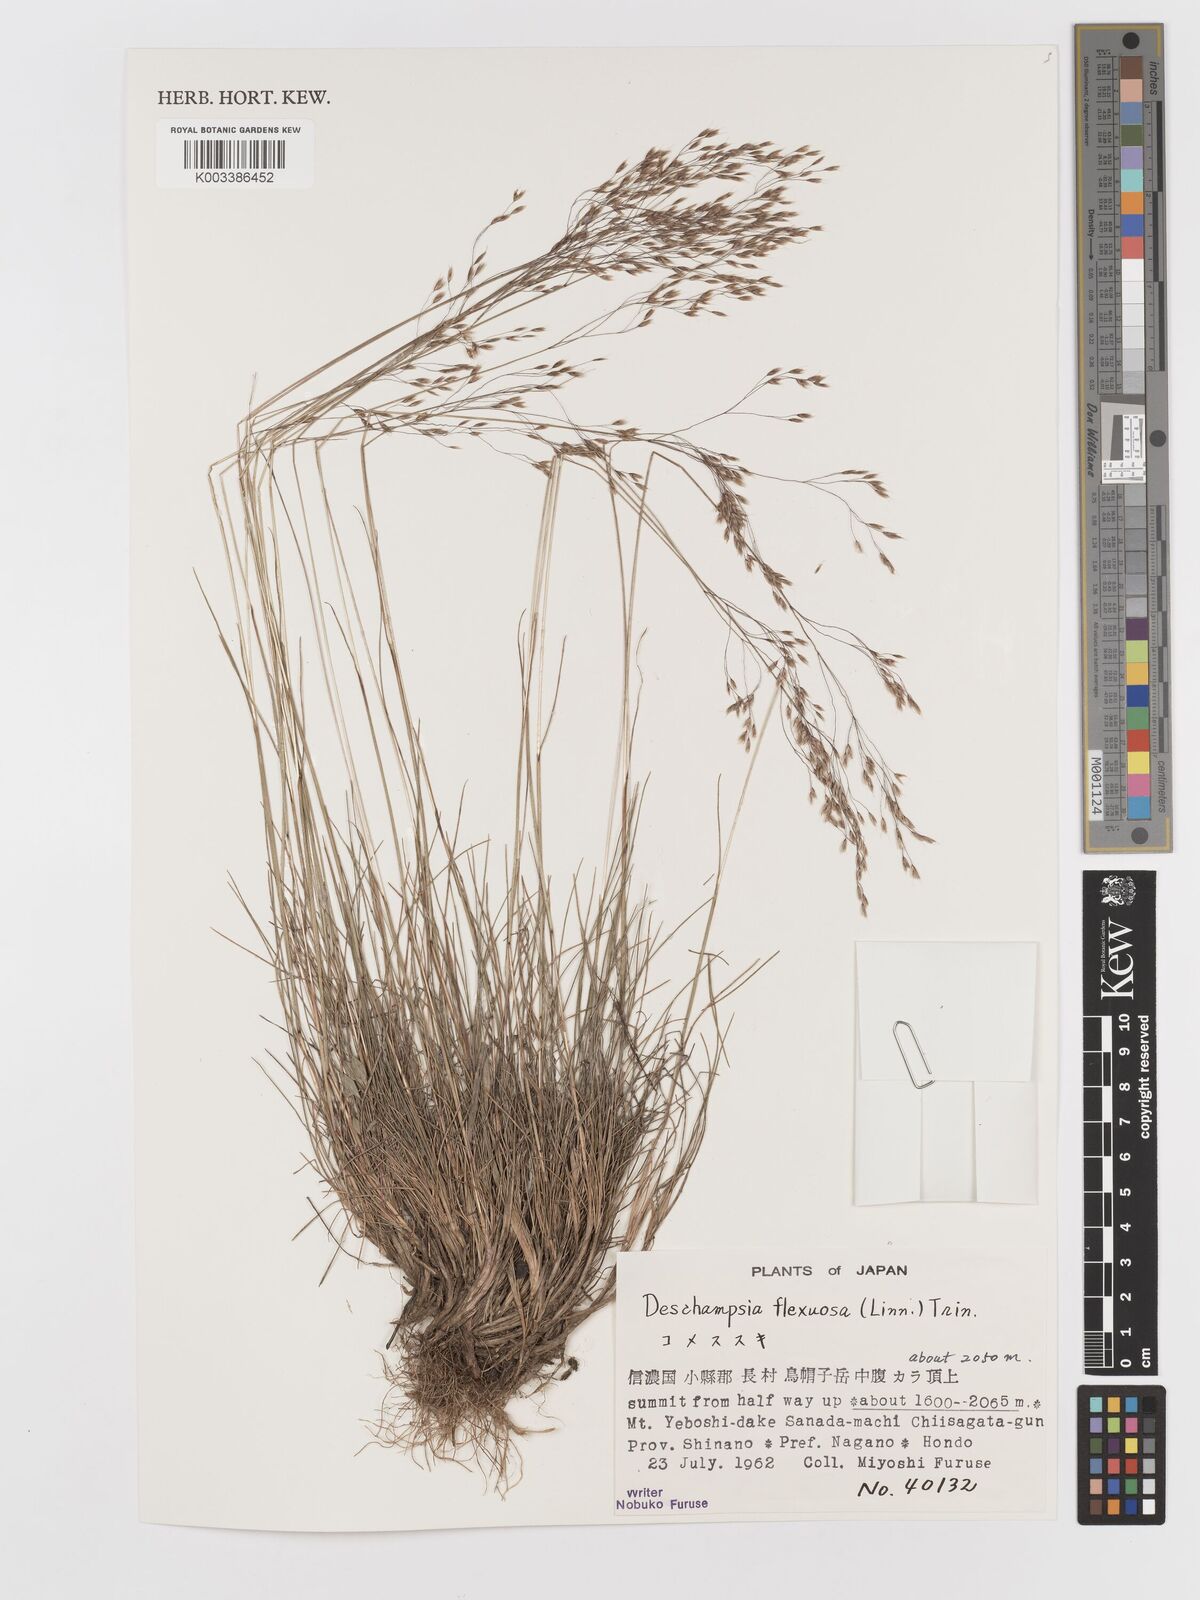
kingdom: Plantae
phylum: Tracheophyta
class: Liliopsida
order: Poales
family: Poaceae
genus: Avenella
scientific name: Avenella flexuosa
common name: Wavy hairgrass
